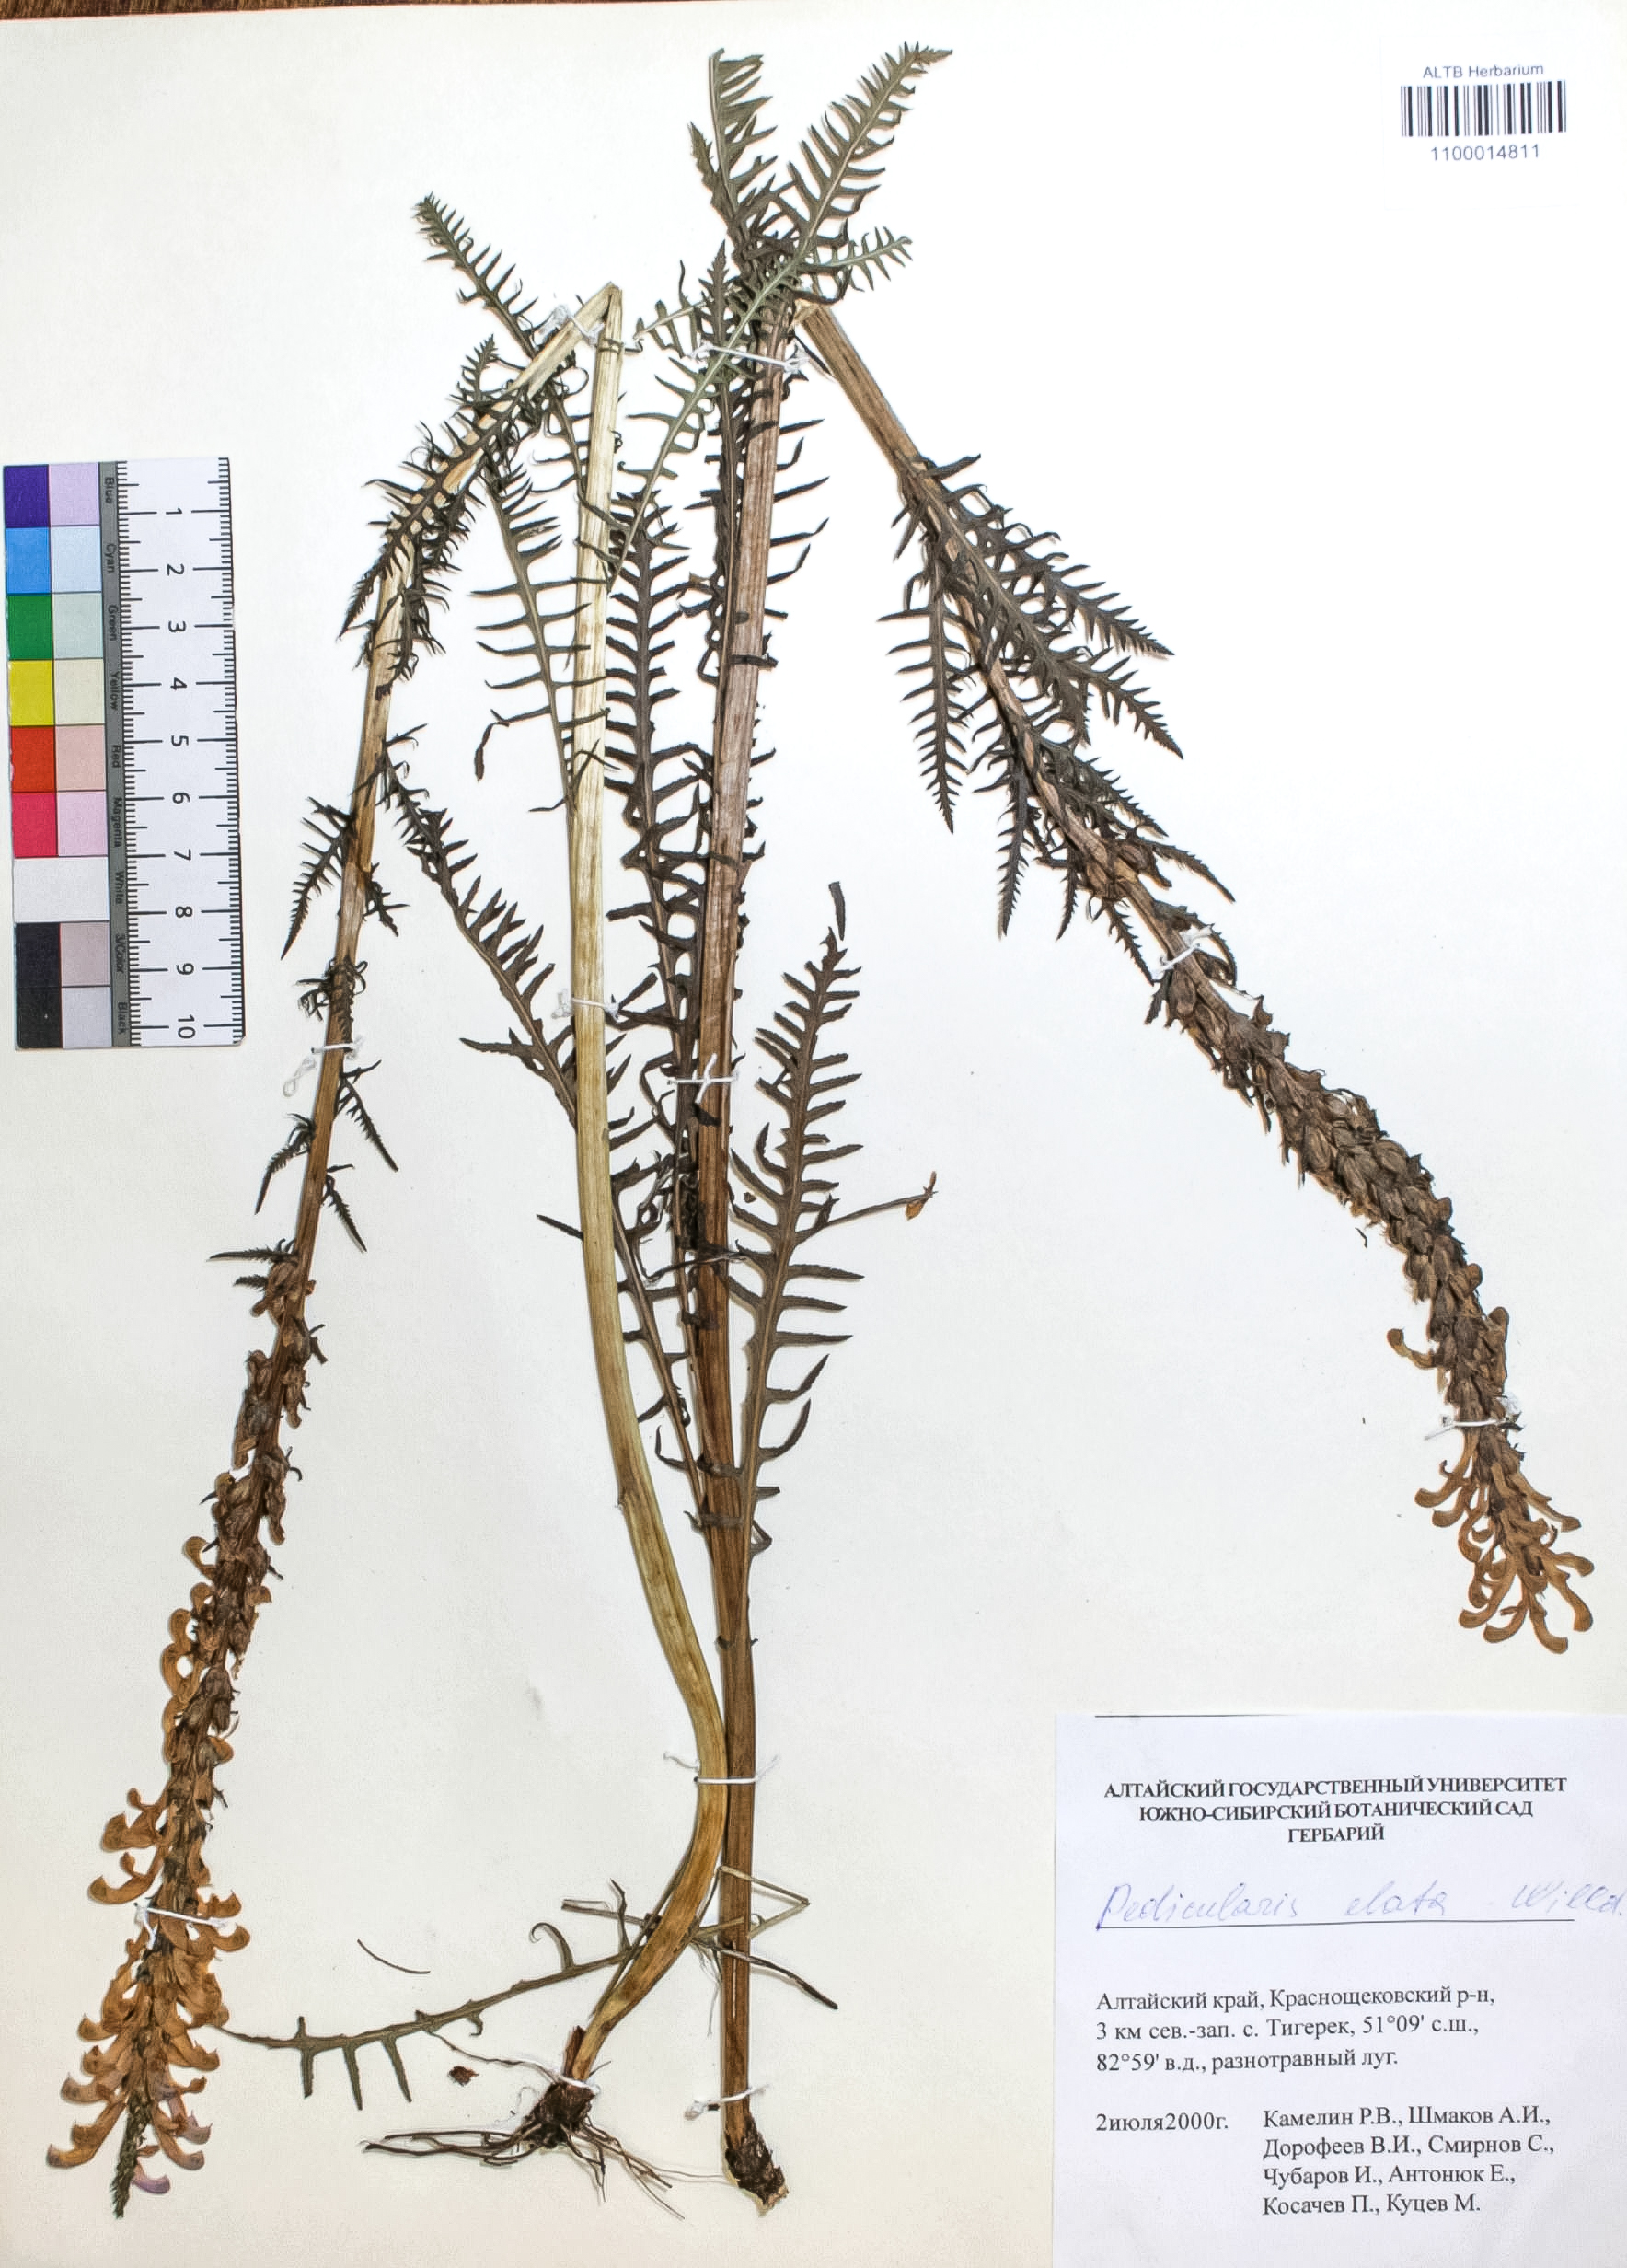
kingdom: Plantae
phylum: Tracheophyta
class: Magnoliopsida
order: Lamiales
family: Orobanchaceae
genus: Pedicularis
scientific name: Pedicularis elata
